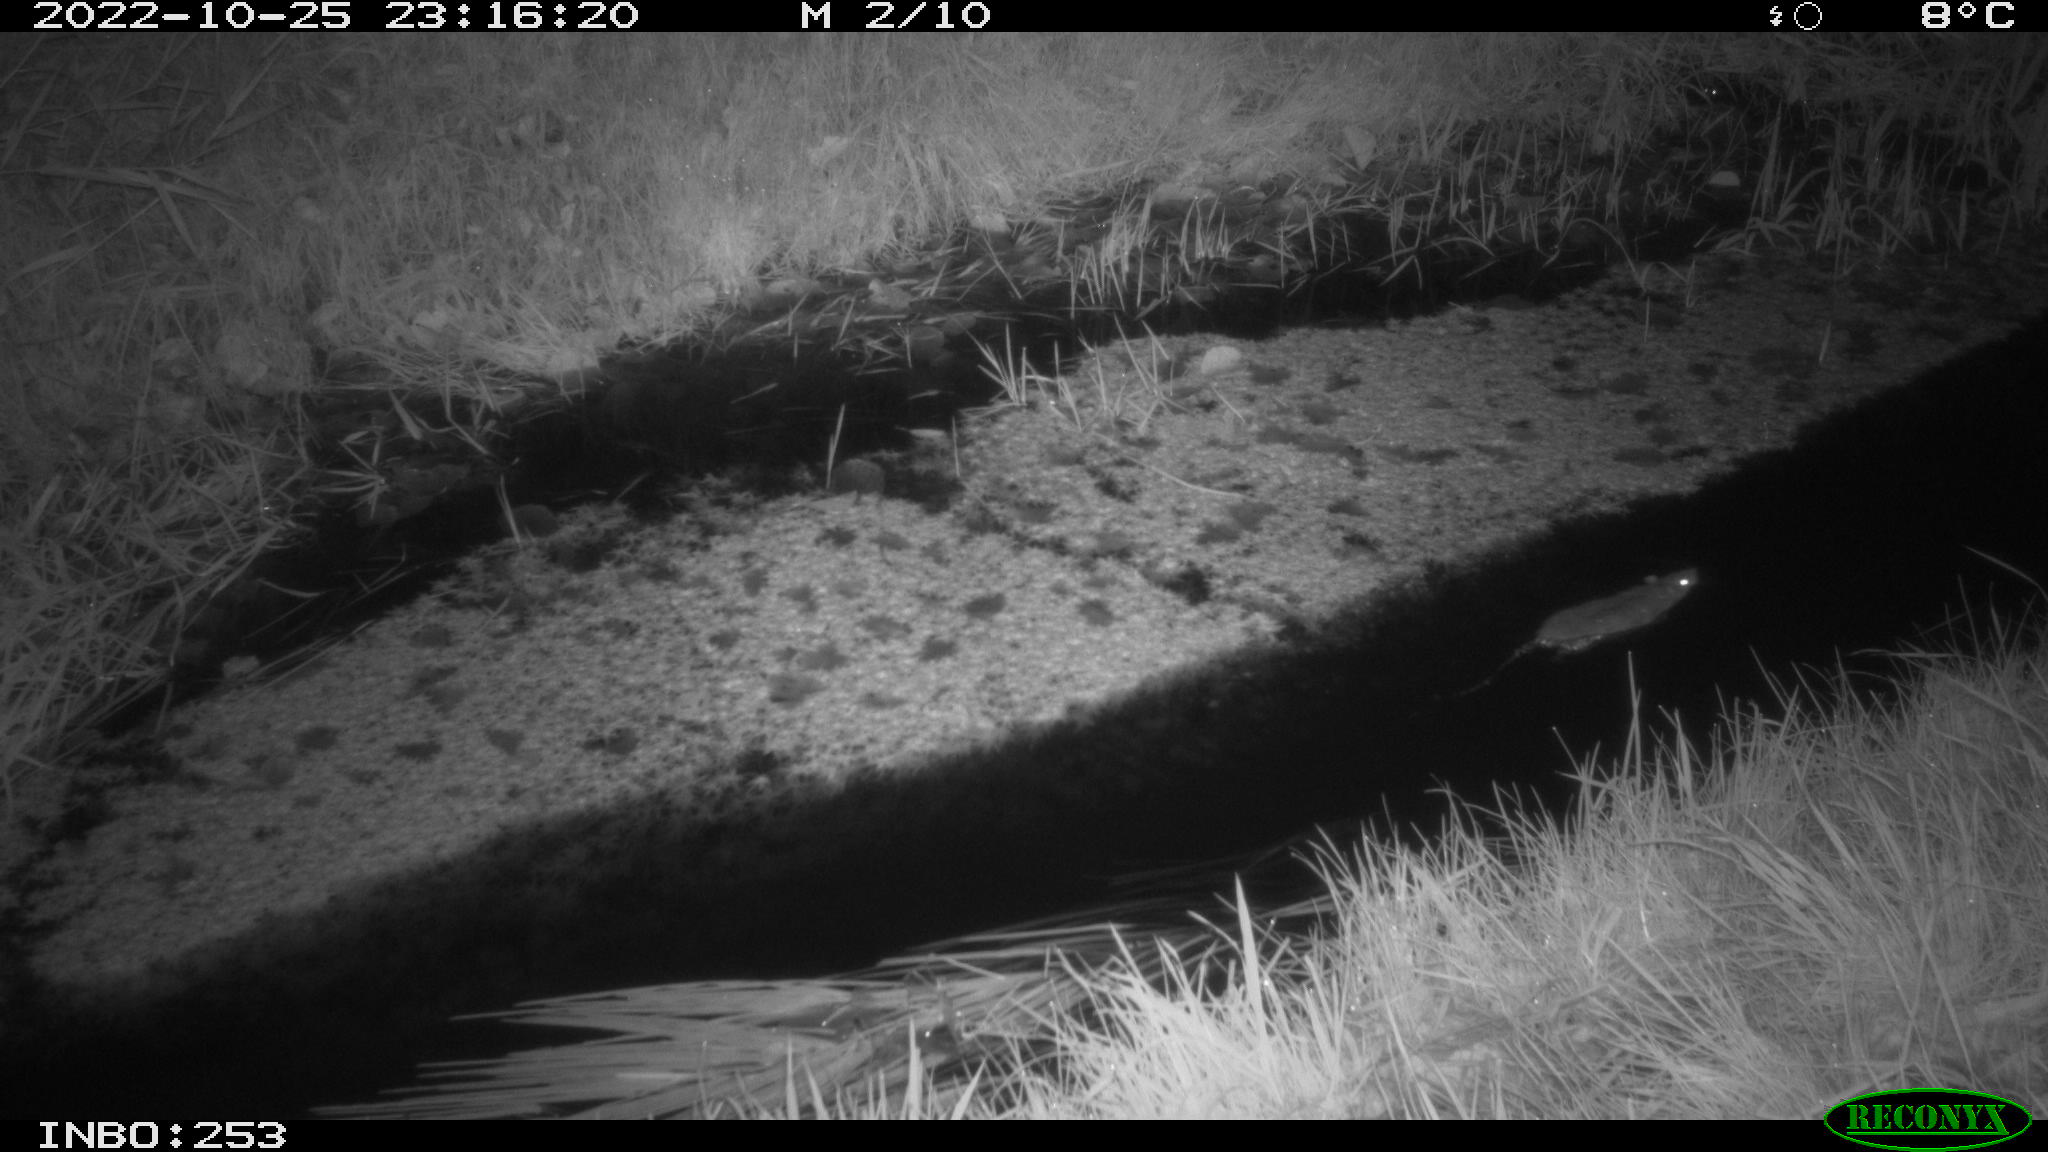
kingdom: Animalia
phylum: Chordata
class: Mammalia
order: Rodentia
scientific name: Rodentia
